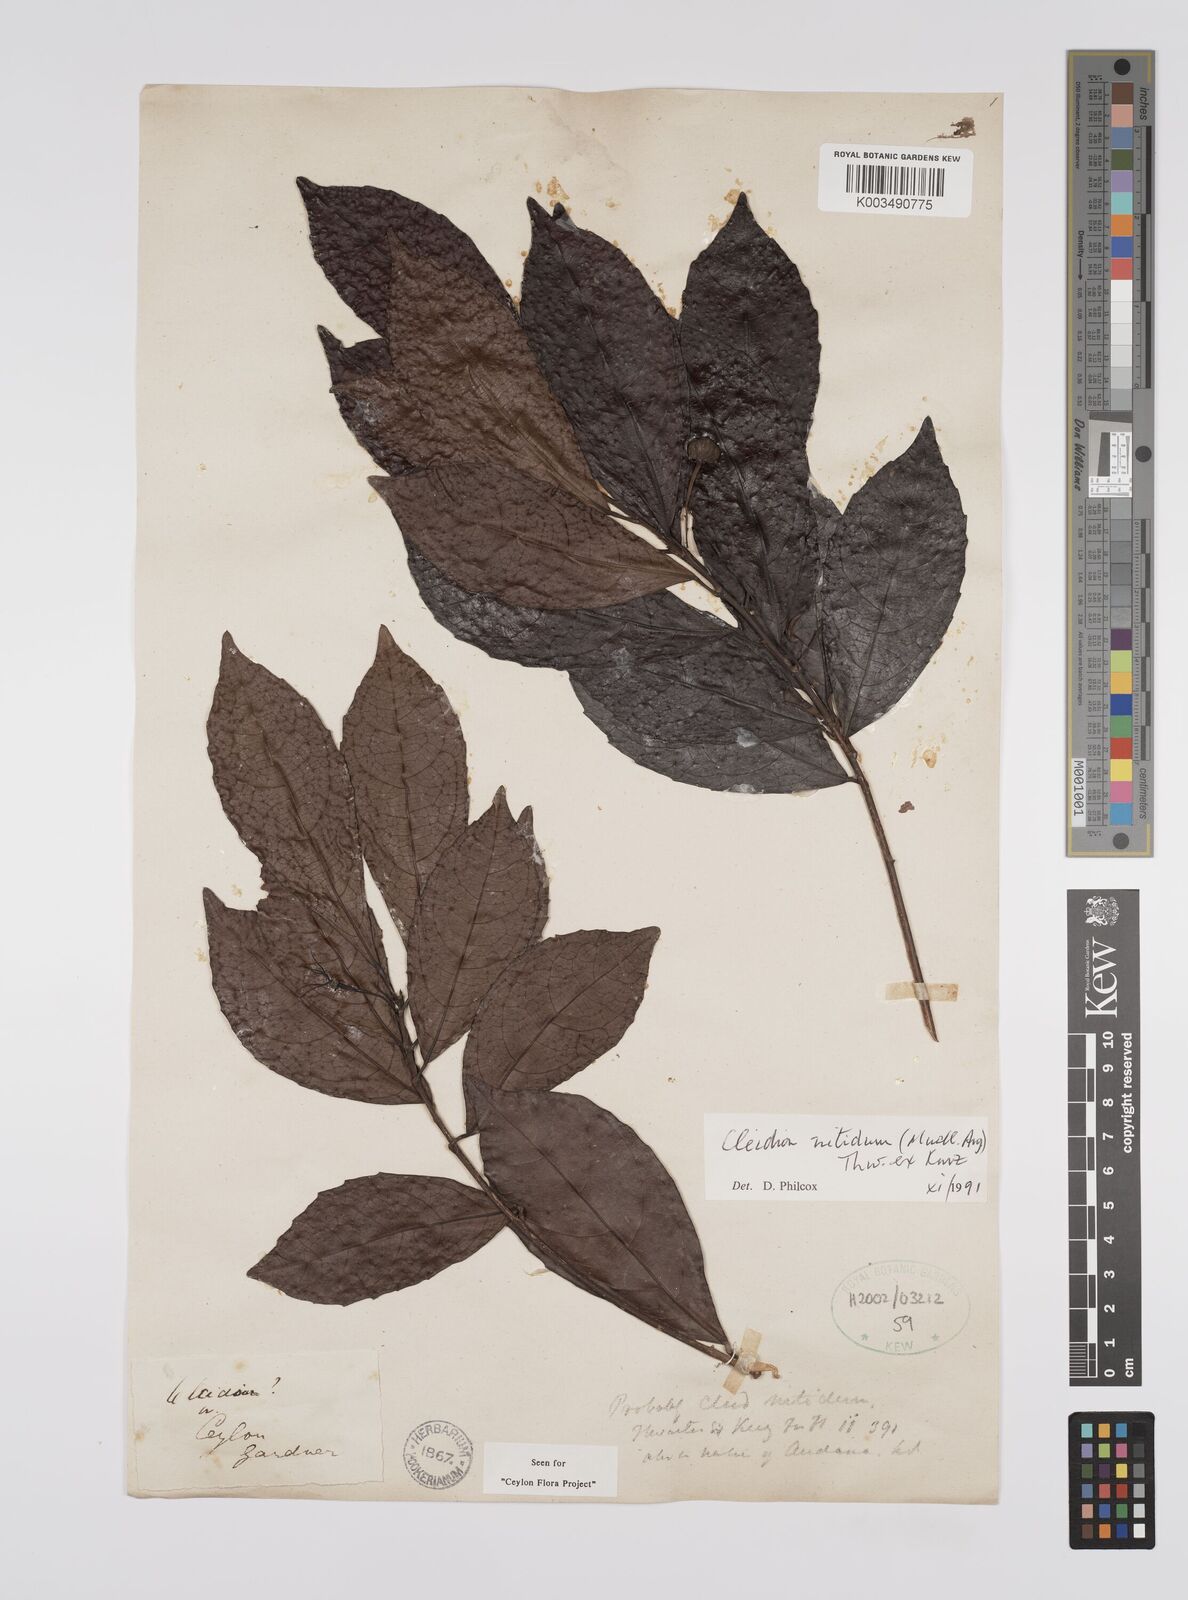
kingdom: Plantae
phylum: Tracheophyta
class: Magnoliopsida
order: Malpighiales
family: Euphorbiaceae
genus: Cleidion
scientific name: Cleidion nitidum
